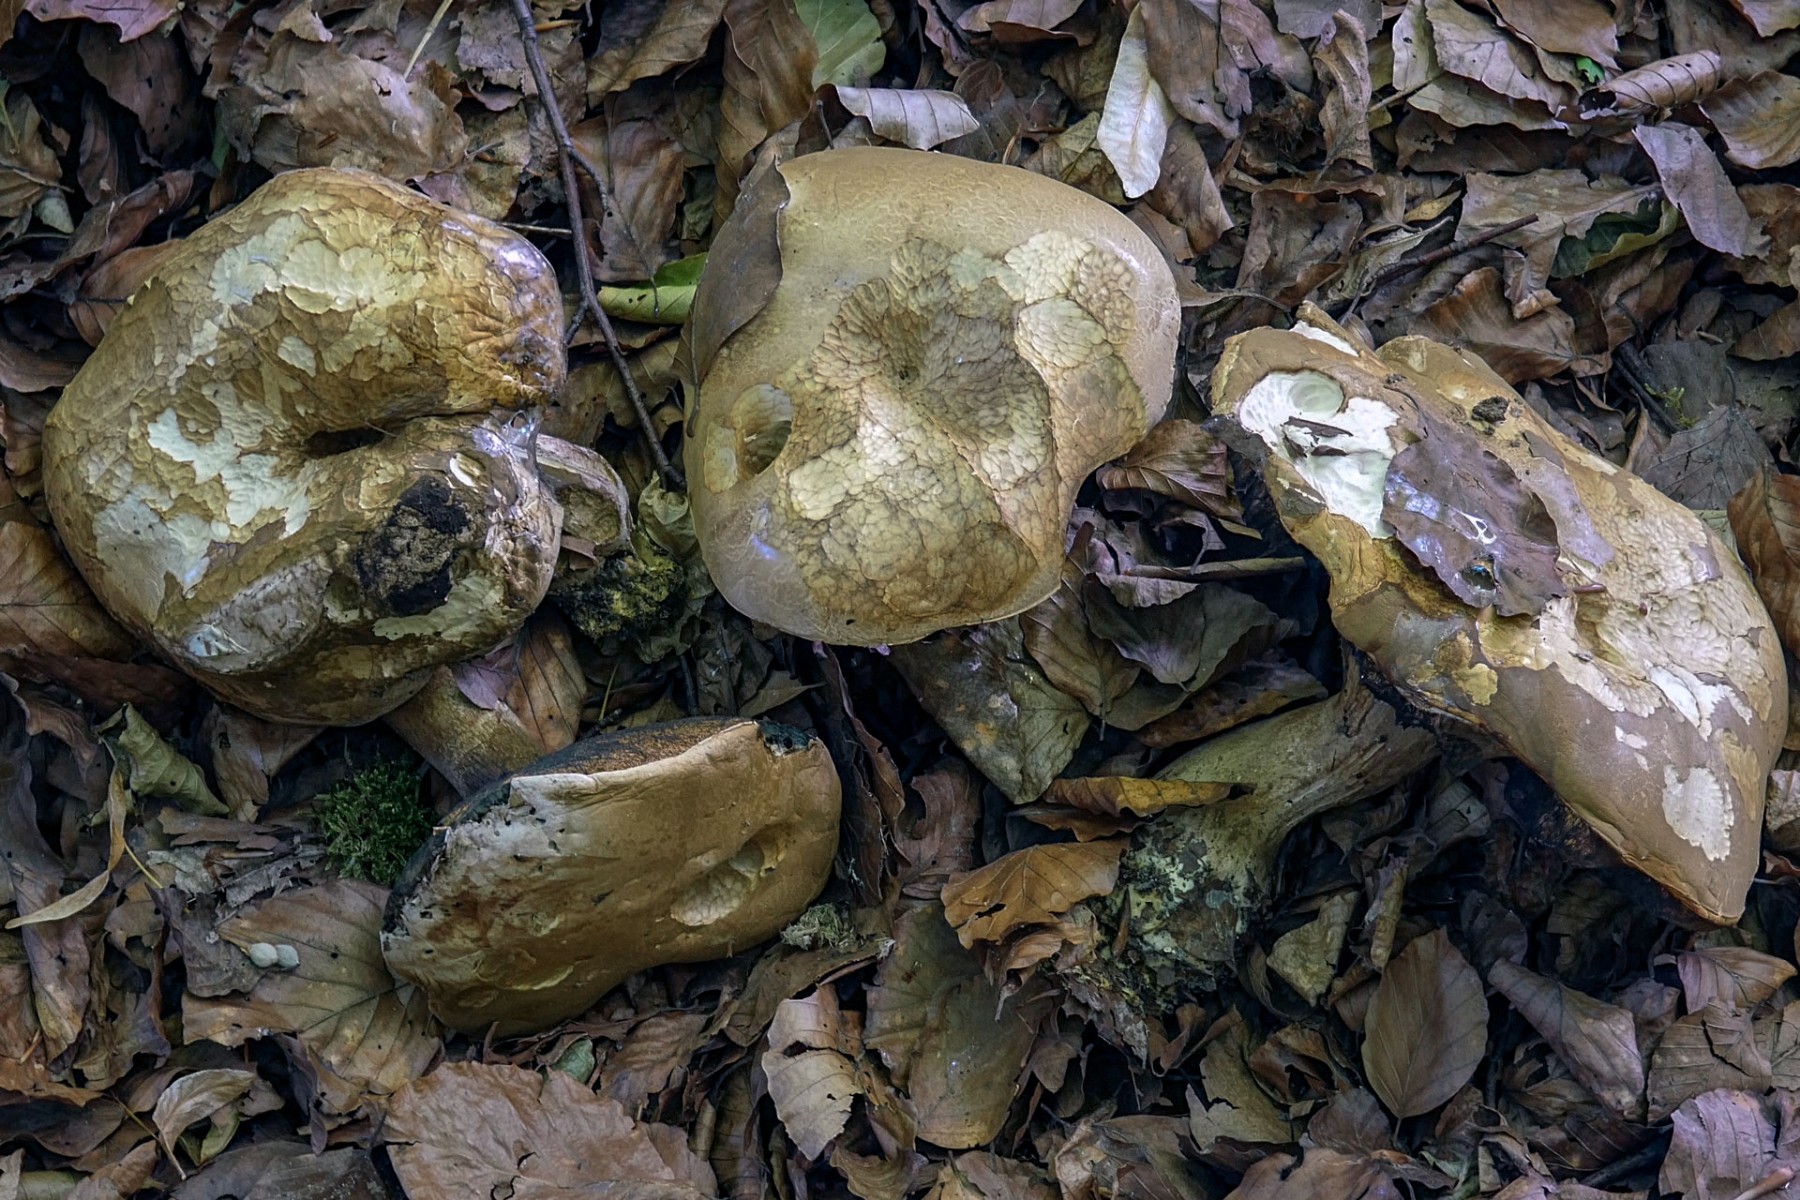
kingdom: Fungi
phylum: Basidiomycota
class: Agaricomycetes
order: Boletales
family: Boletaceae
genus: Caloboletus
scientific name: Caloboletus calopus
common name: skønfodet rørhat
